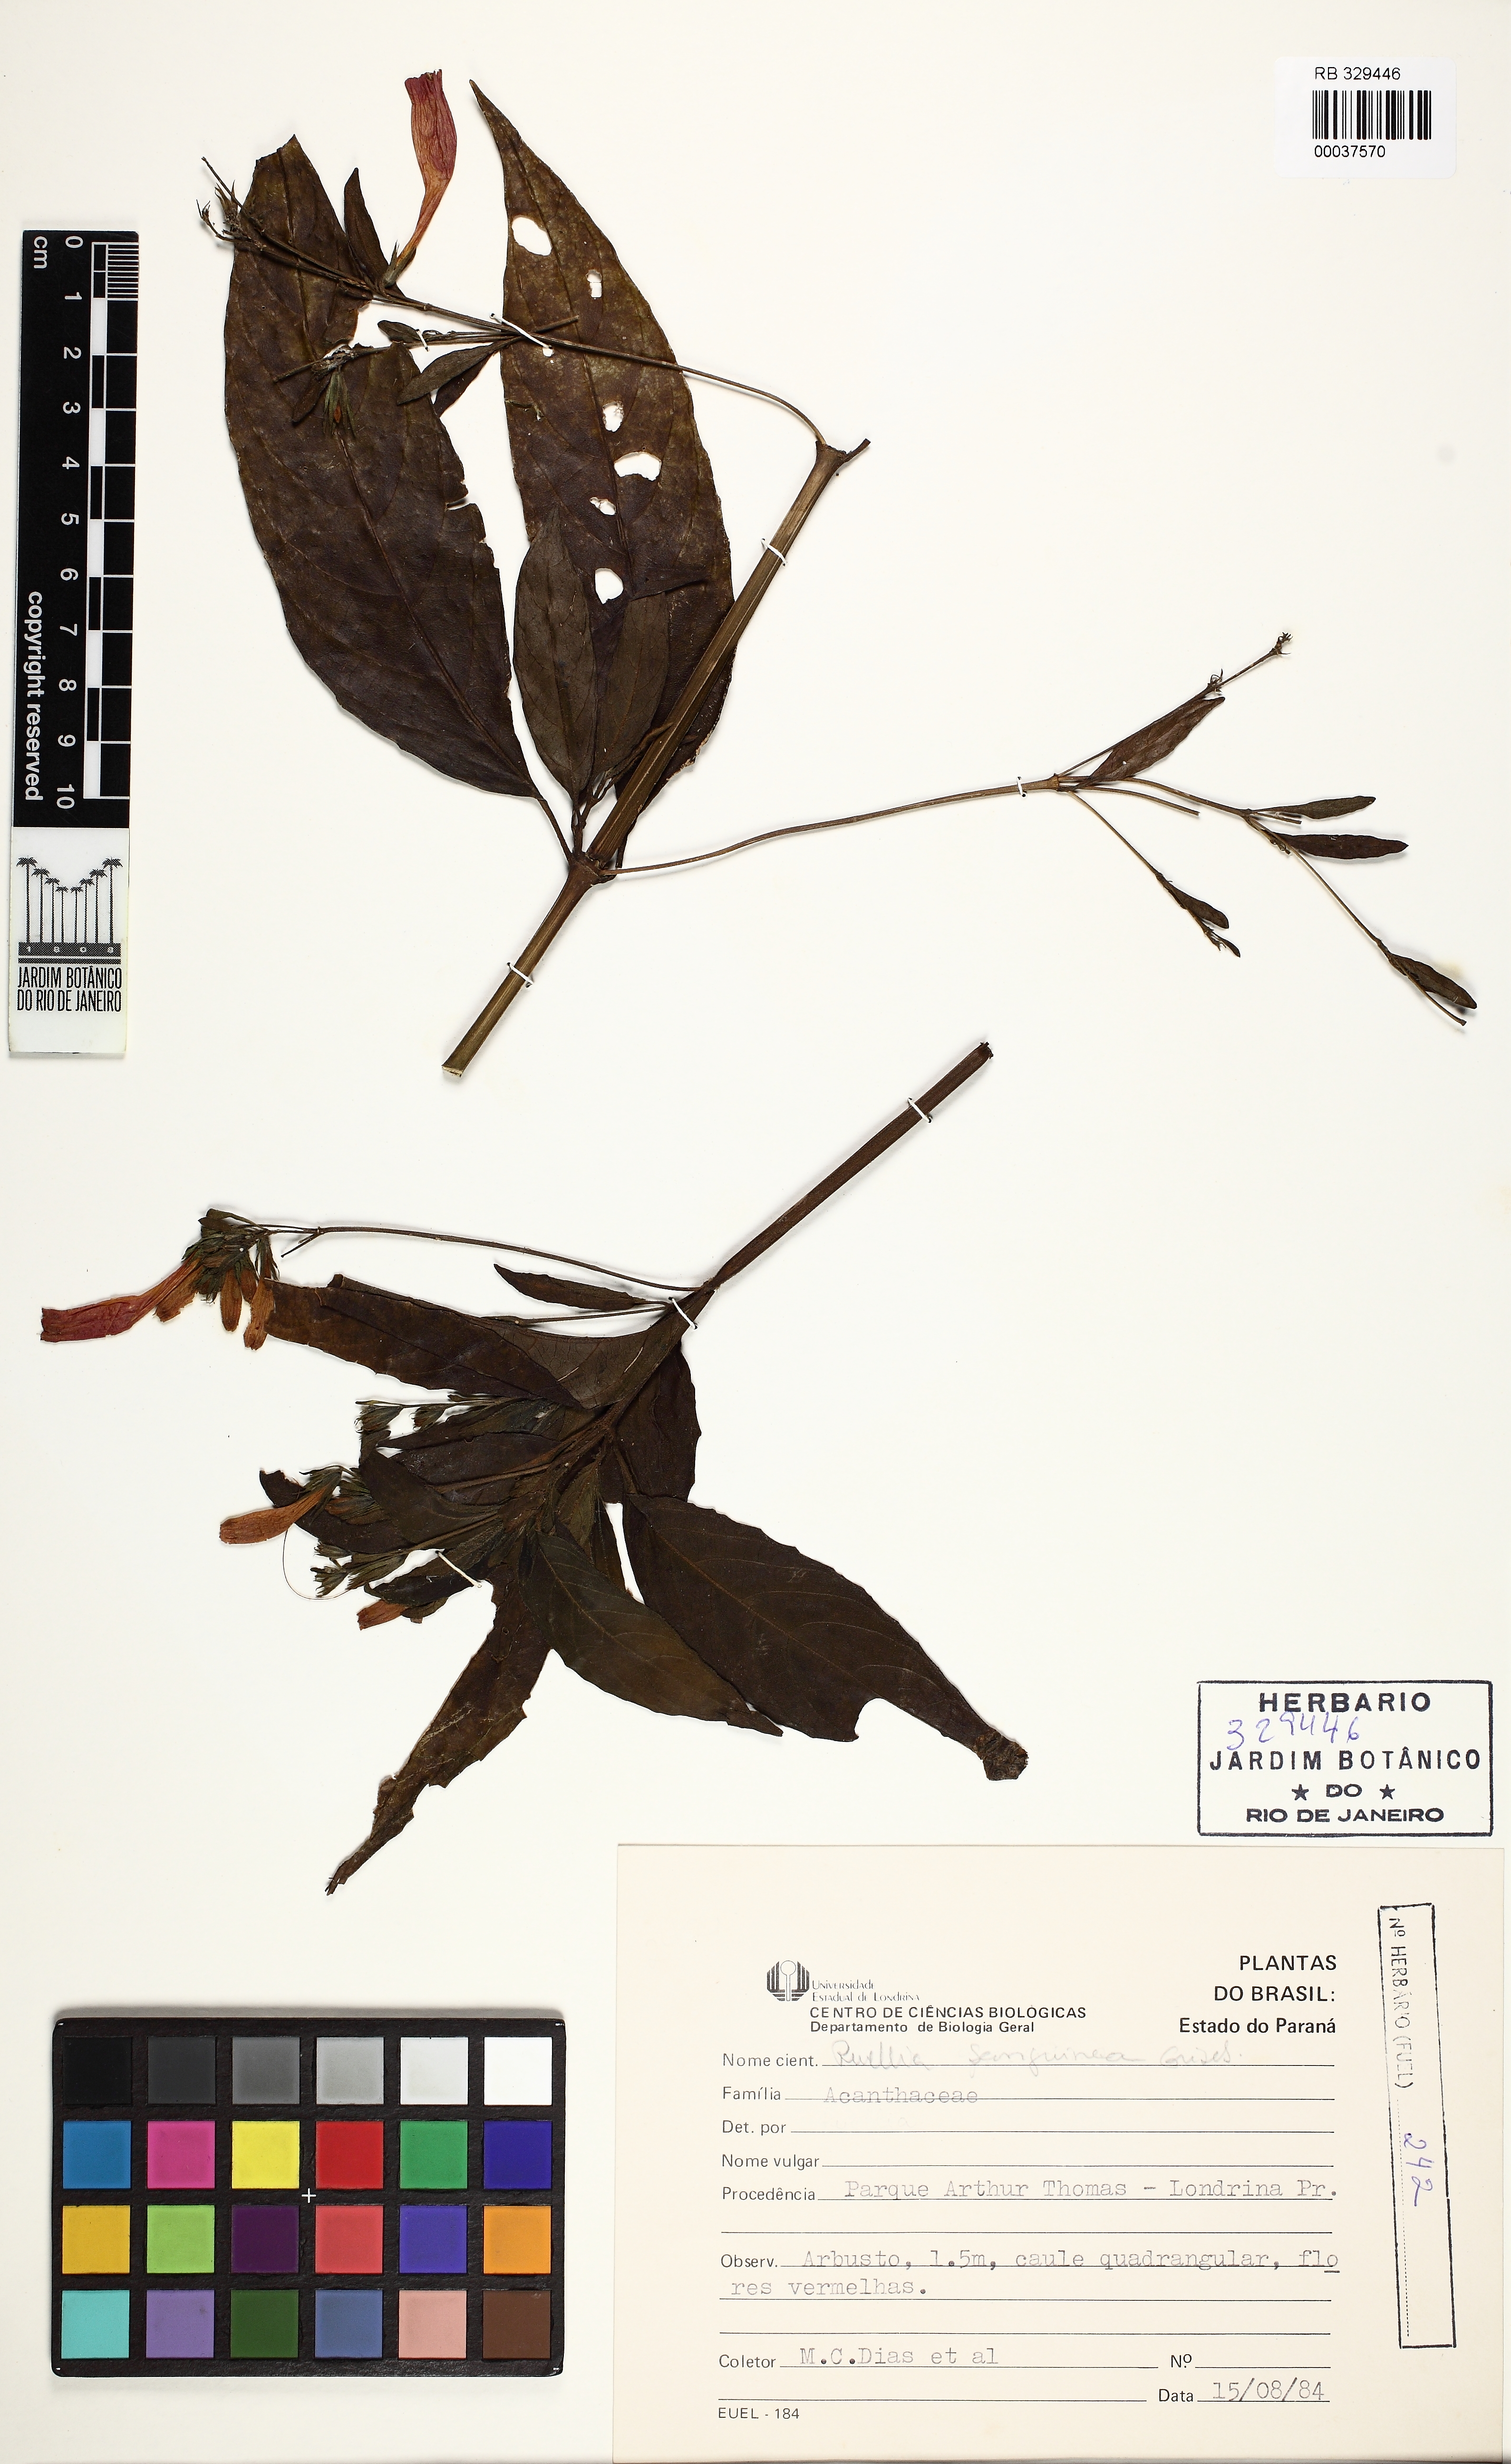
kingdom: Plantae
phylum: Tracheophyta
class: Magnoliopsida
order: Lamiales
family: Acanthaceae
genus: Ruellia
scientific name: Ruellia angustiflora
